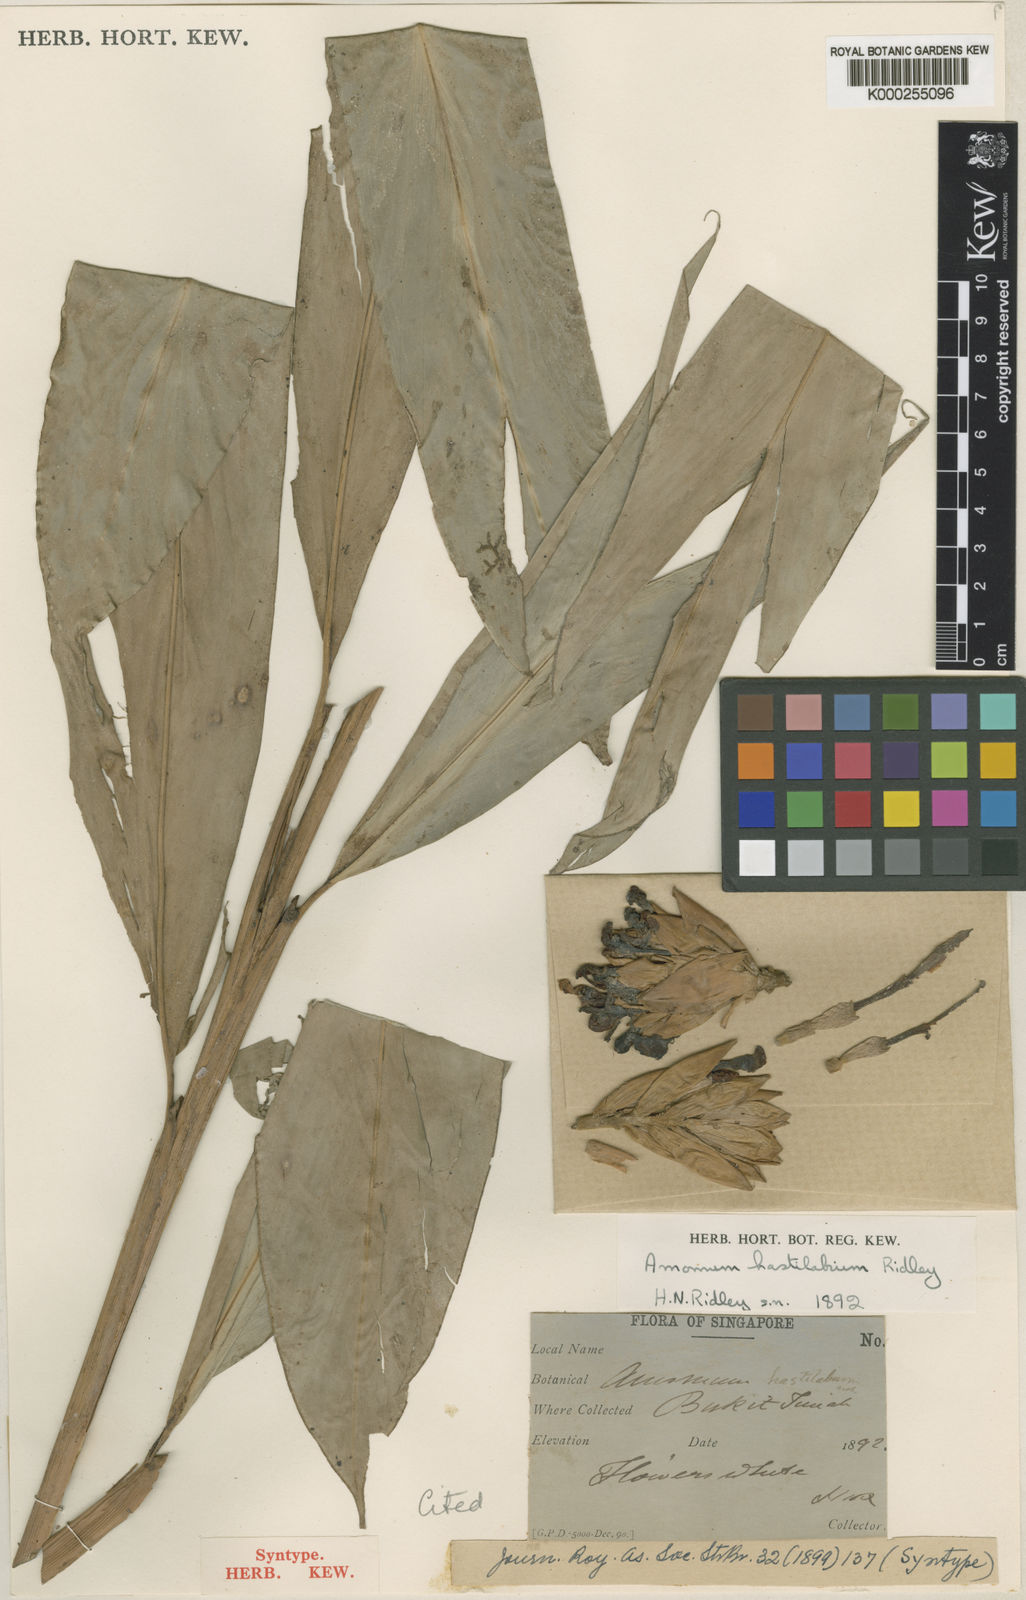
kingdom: Plantae
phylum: Tracheophyta
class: Liliopsida
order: Zingiberales
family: Zingiberaceae
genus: Sundamomum
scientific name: Sundamomum hastilabium
